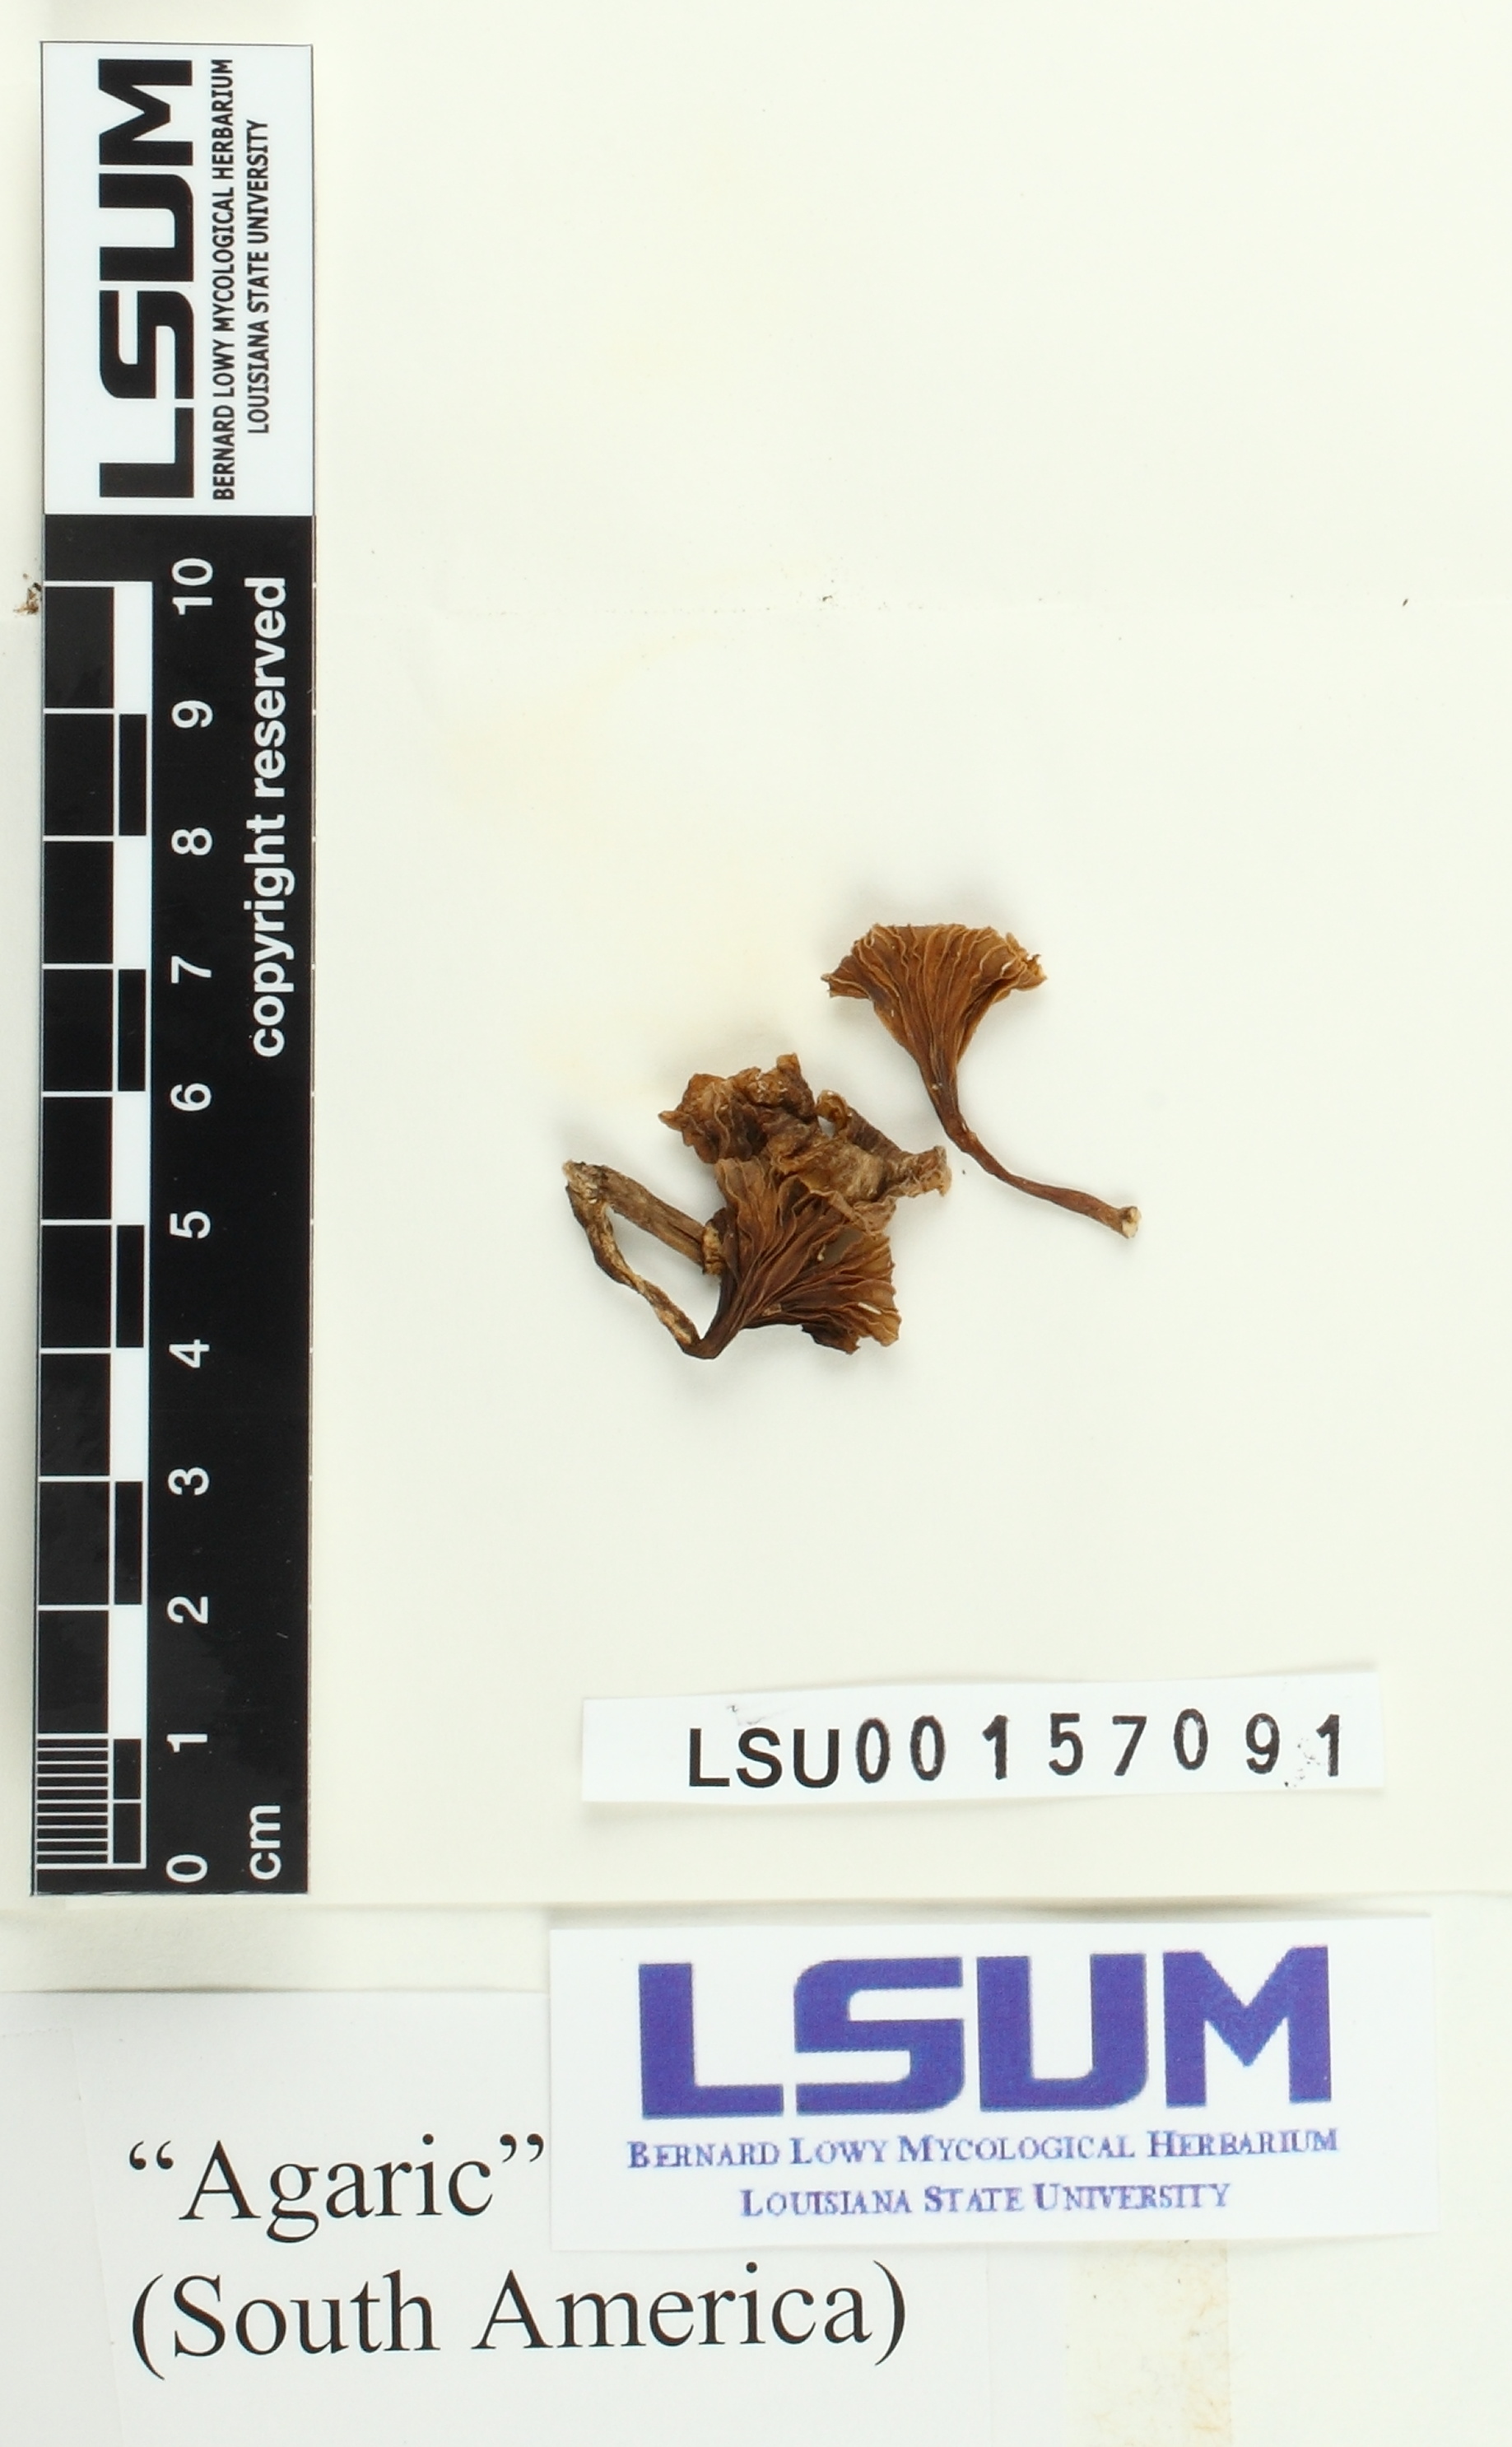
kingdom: Fungi
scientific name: Fungi
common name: Fungi
